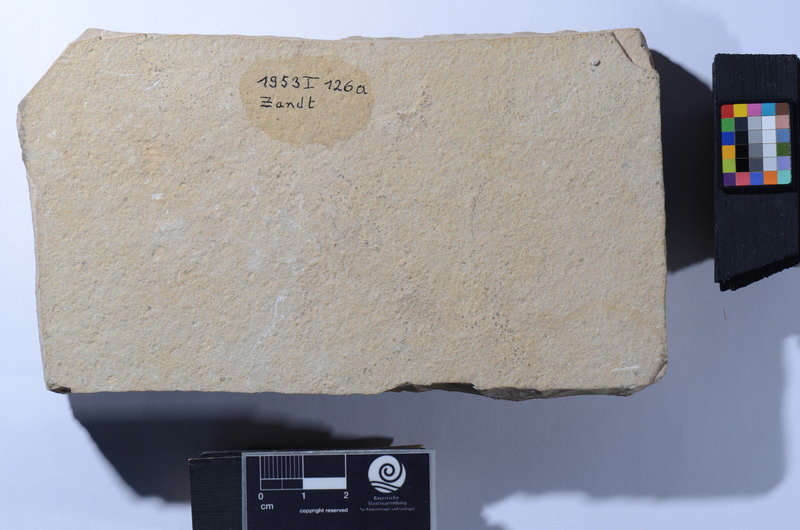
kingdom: Animalia
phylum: Chordata
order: Amiiformes
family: Liodesmidae
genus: Liodesmus
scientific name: Liodesmus
